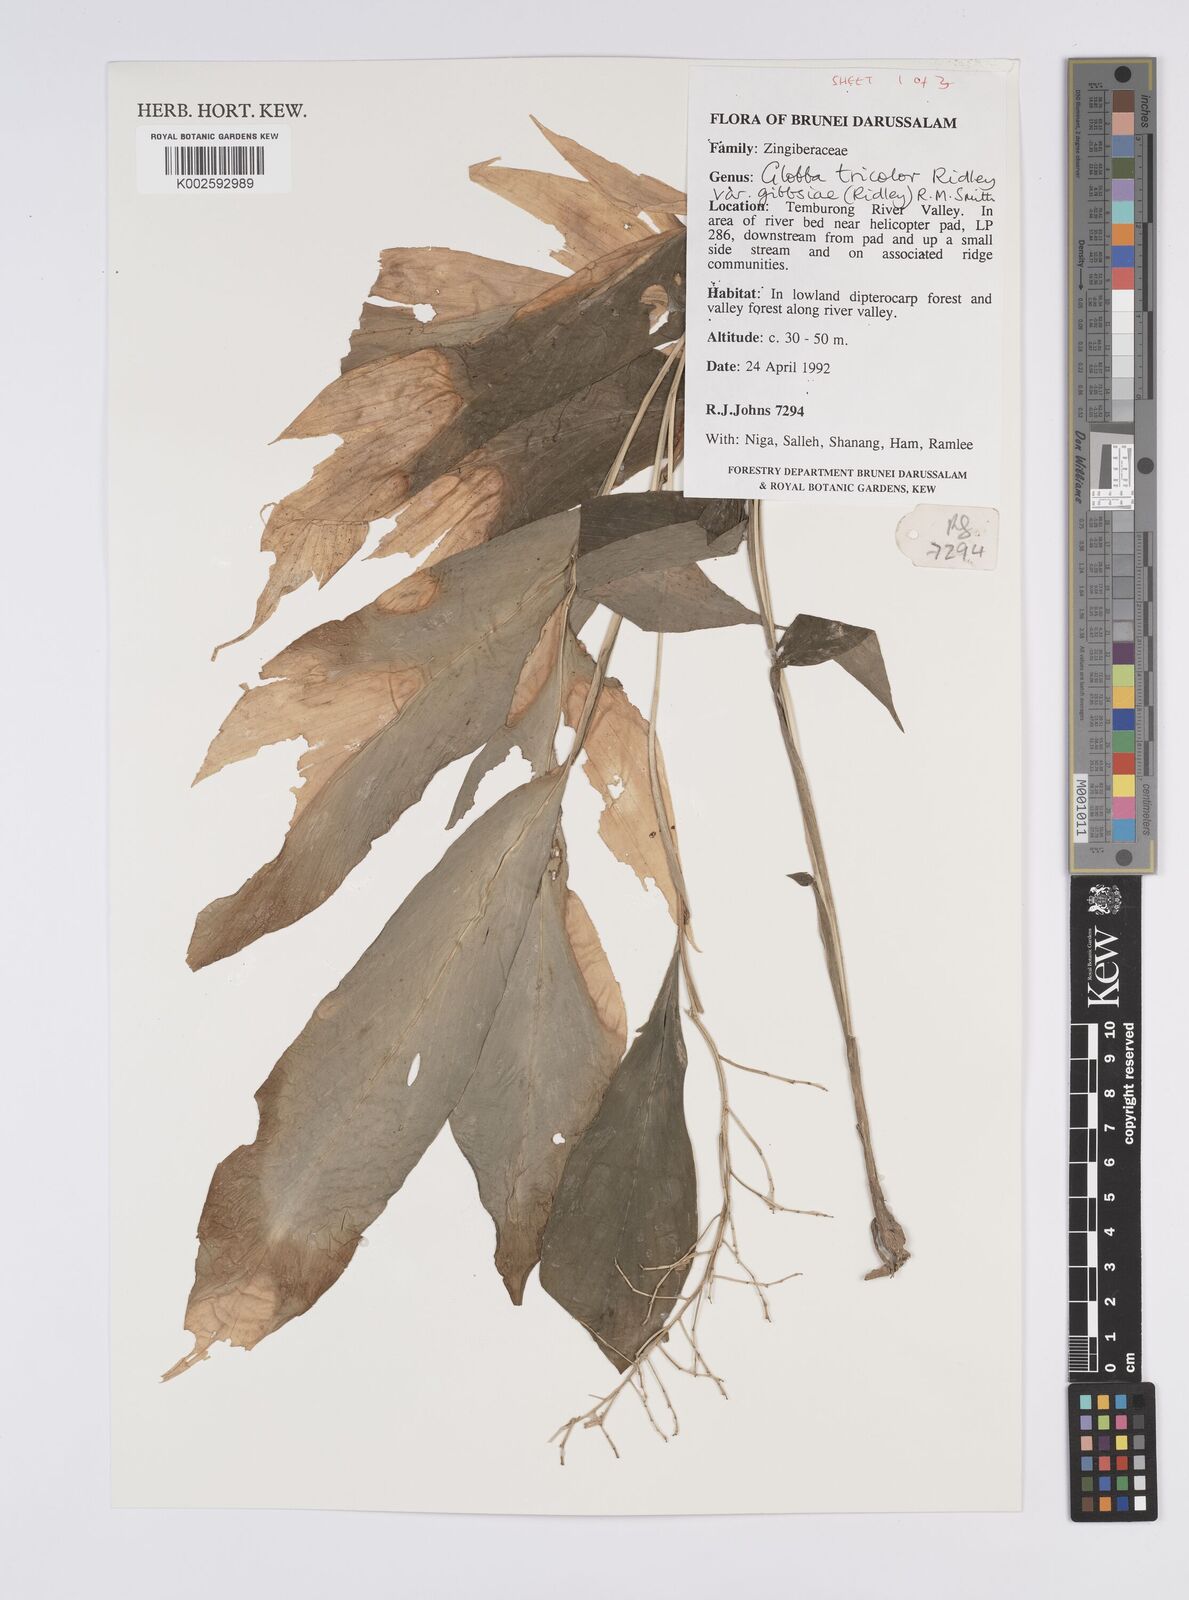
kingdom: Plantae
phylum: Tracheophyta
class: Liliopsida
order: Zingiberales
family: Zingiberaceae
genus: Globba
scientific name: Globba tricolor
